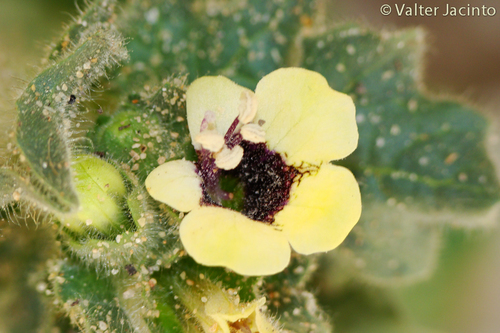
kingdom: Plantae
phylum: Tracheophyta
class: Magnoliopsida
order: Solanales
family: Solanaceae
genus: Hyoscyamus
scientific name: Hyoscyamus albus
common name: White henbane
